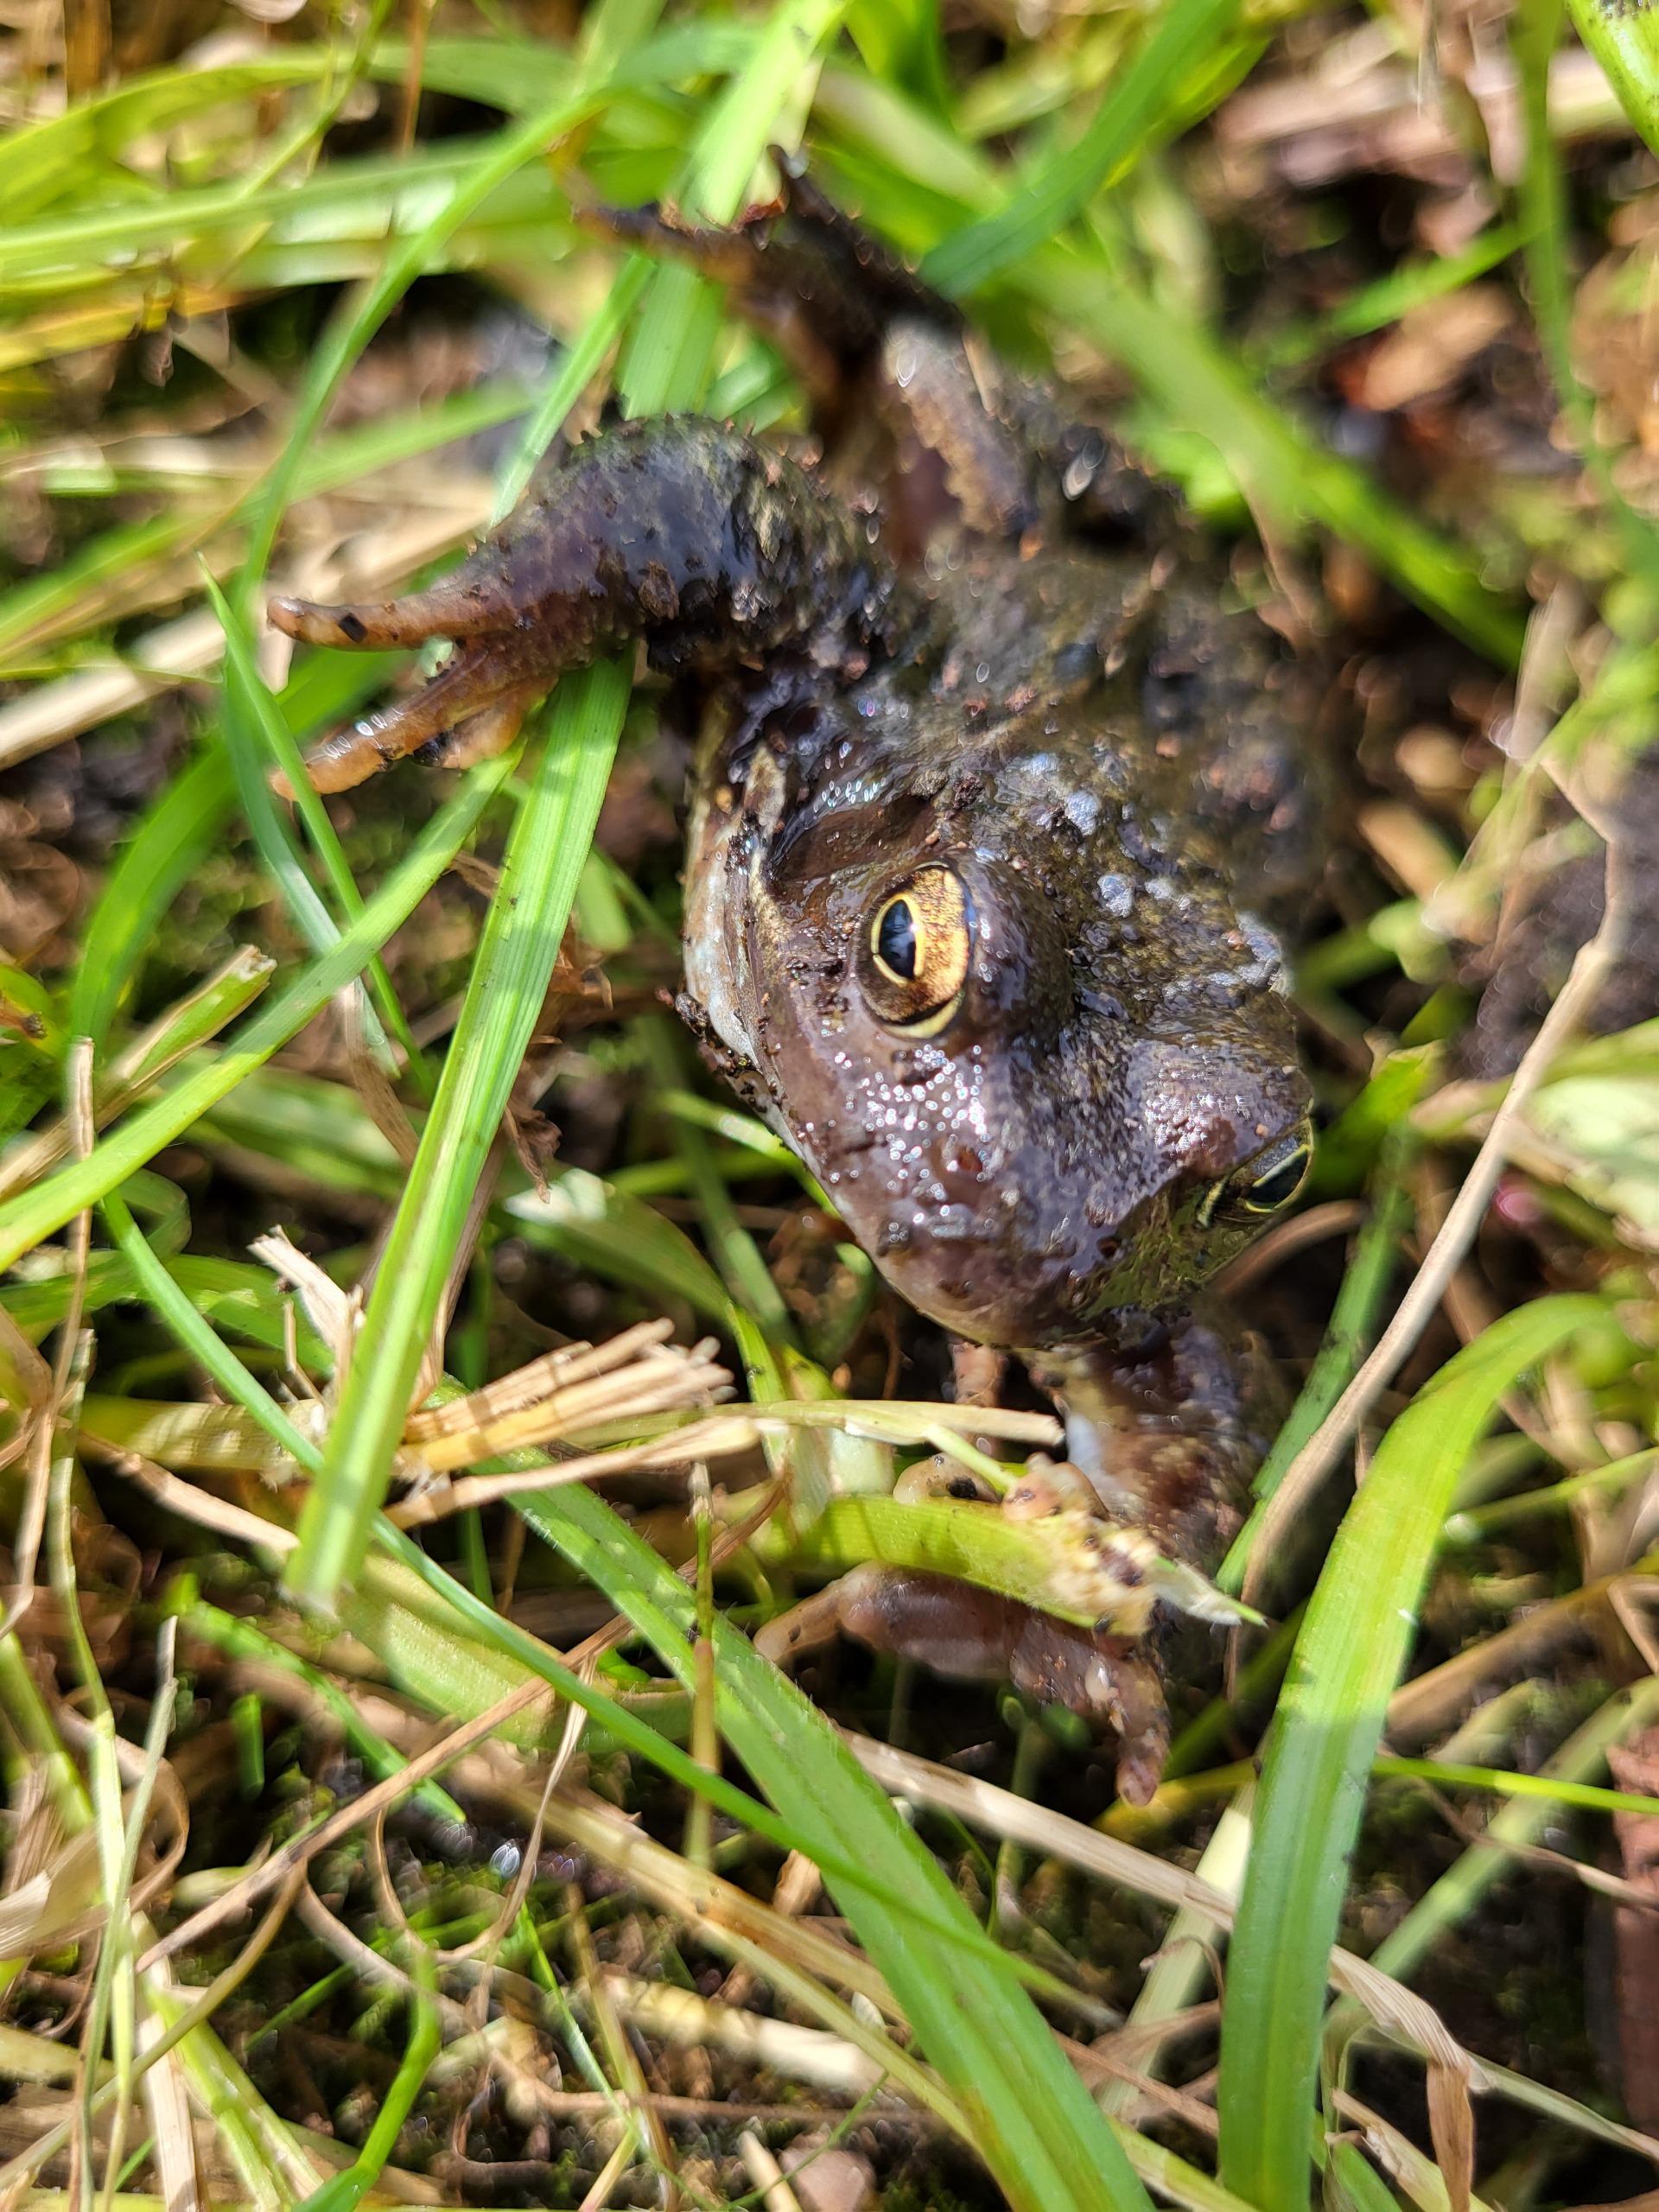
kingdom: Animalia
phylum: Chordata
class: Amphibia
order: Anura
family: Ranidae
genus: Rana
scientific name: Rana temporaria
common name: Butsnudet frø
